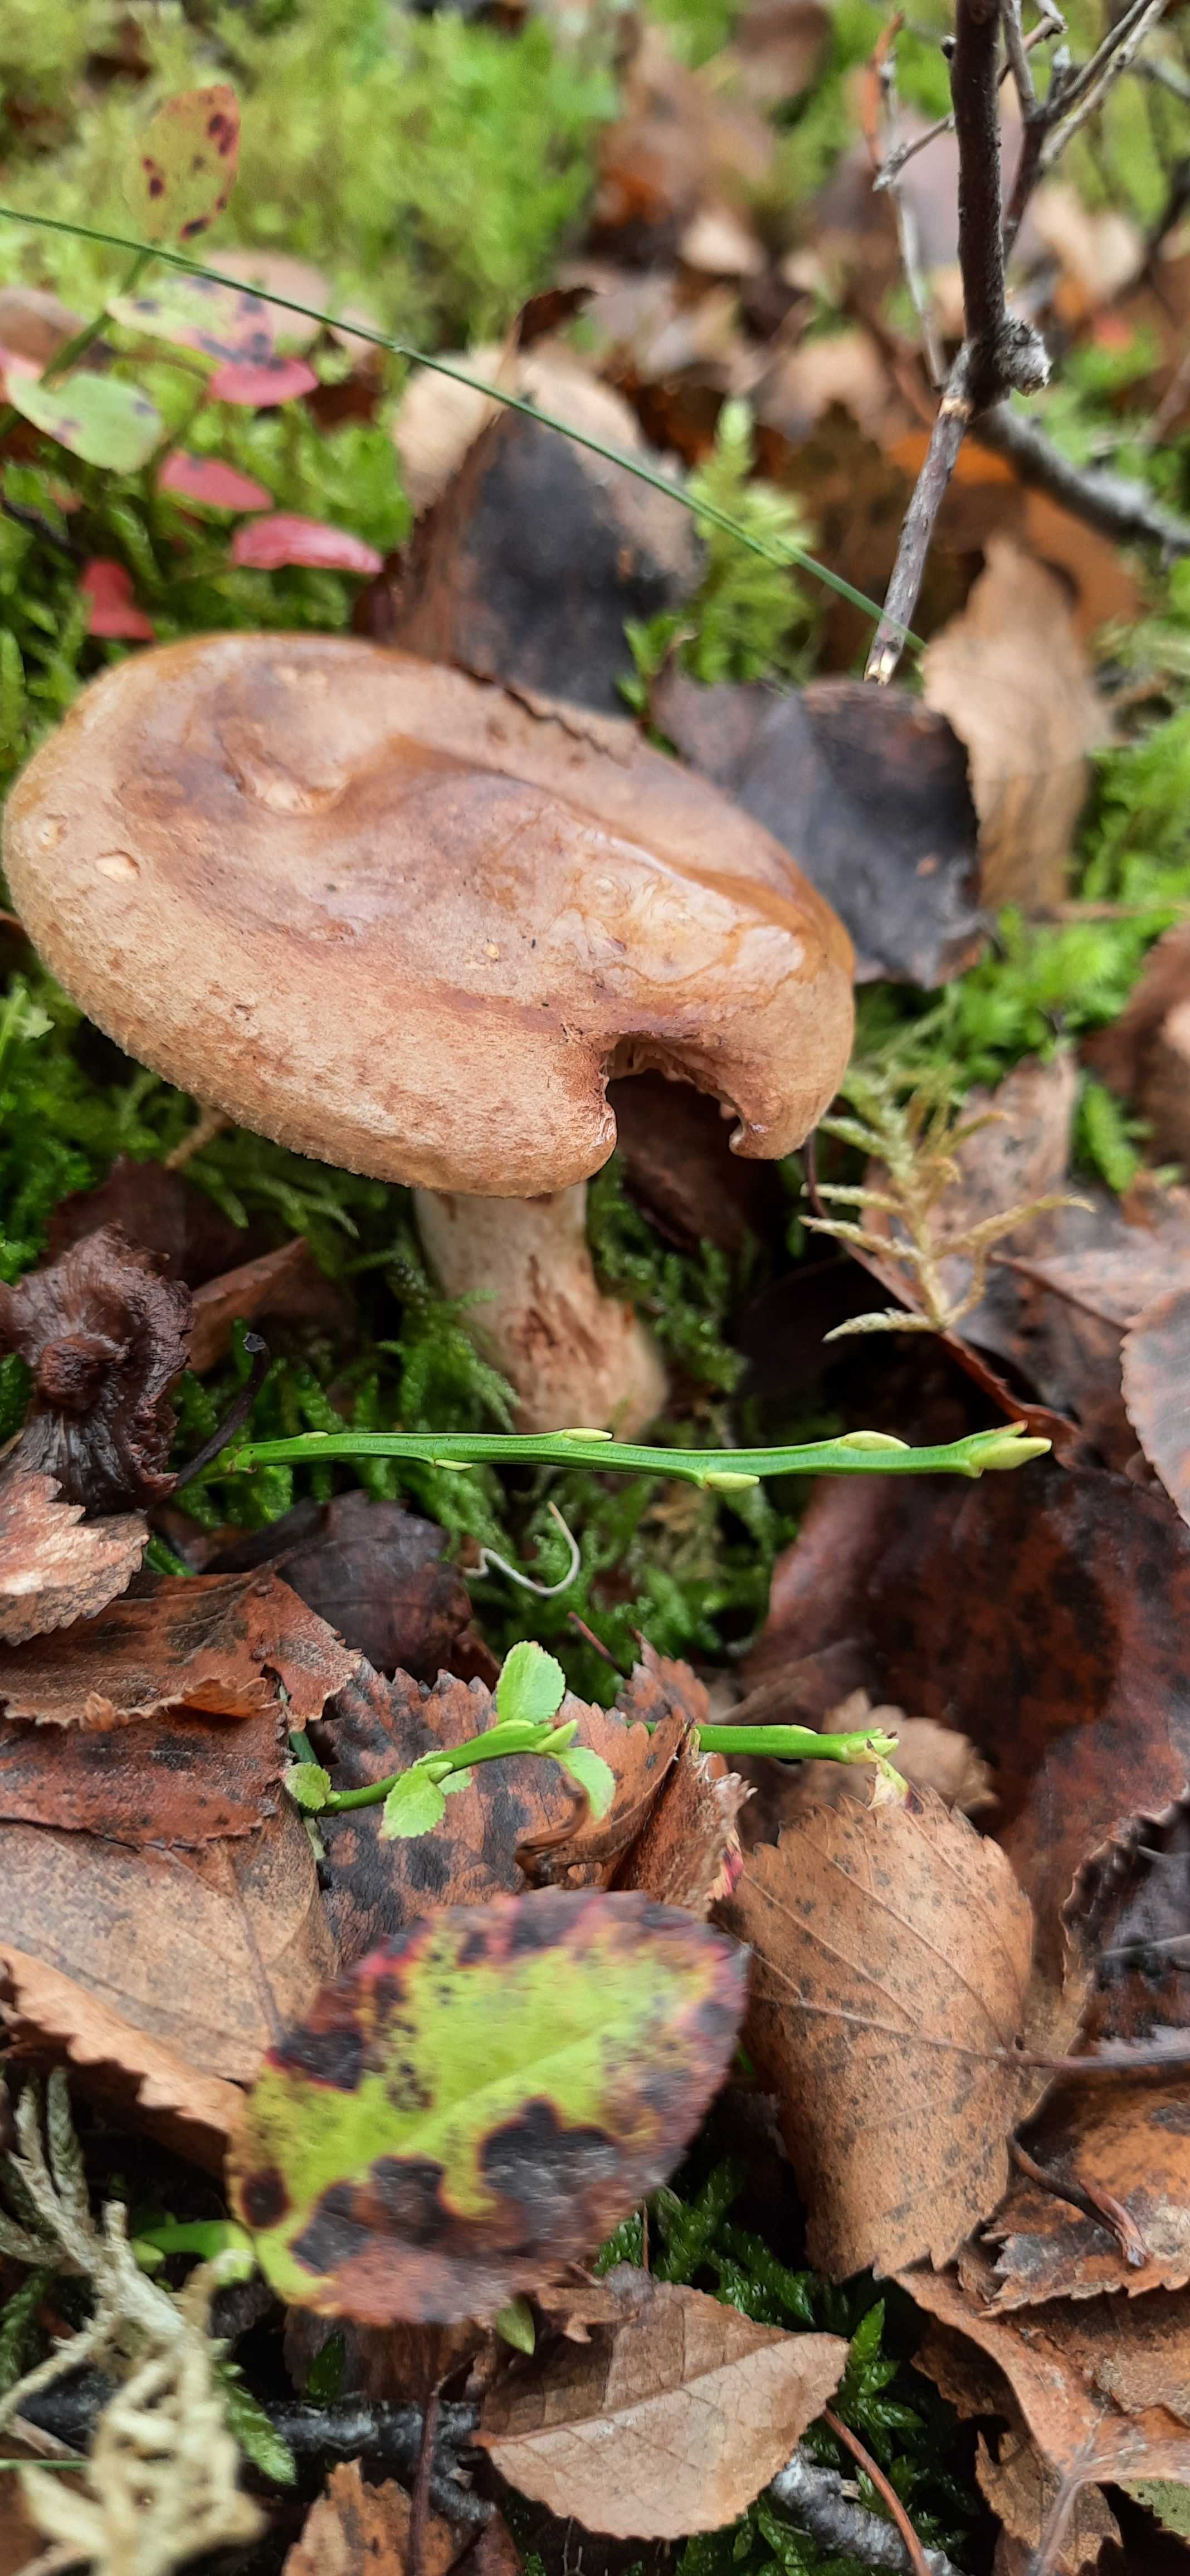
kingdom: Fungi
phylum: Basidiomycota
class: Agaricomycetes
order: Boletales
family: Paxillaceae
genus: Paxillus
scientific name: Paxillus involutus
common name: almindelig netbladhat
